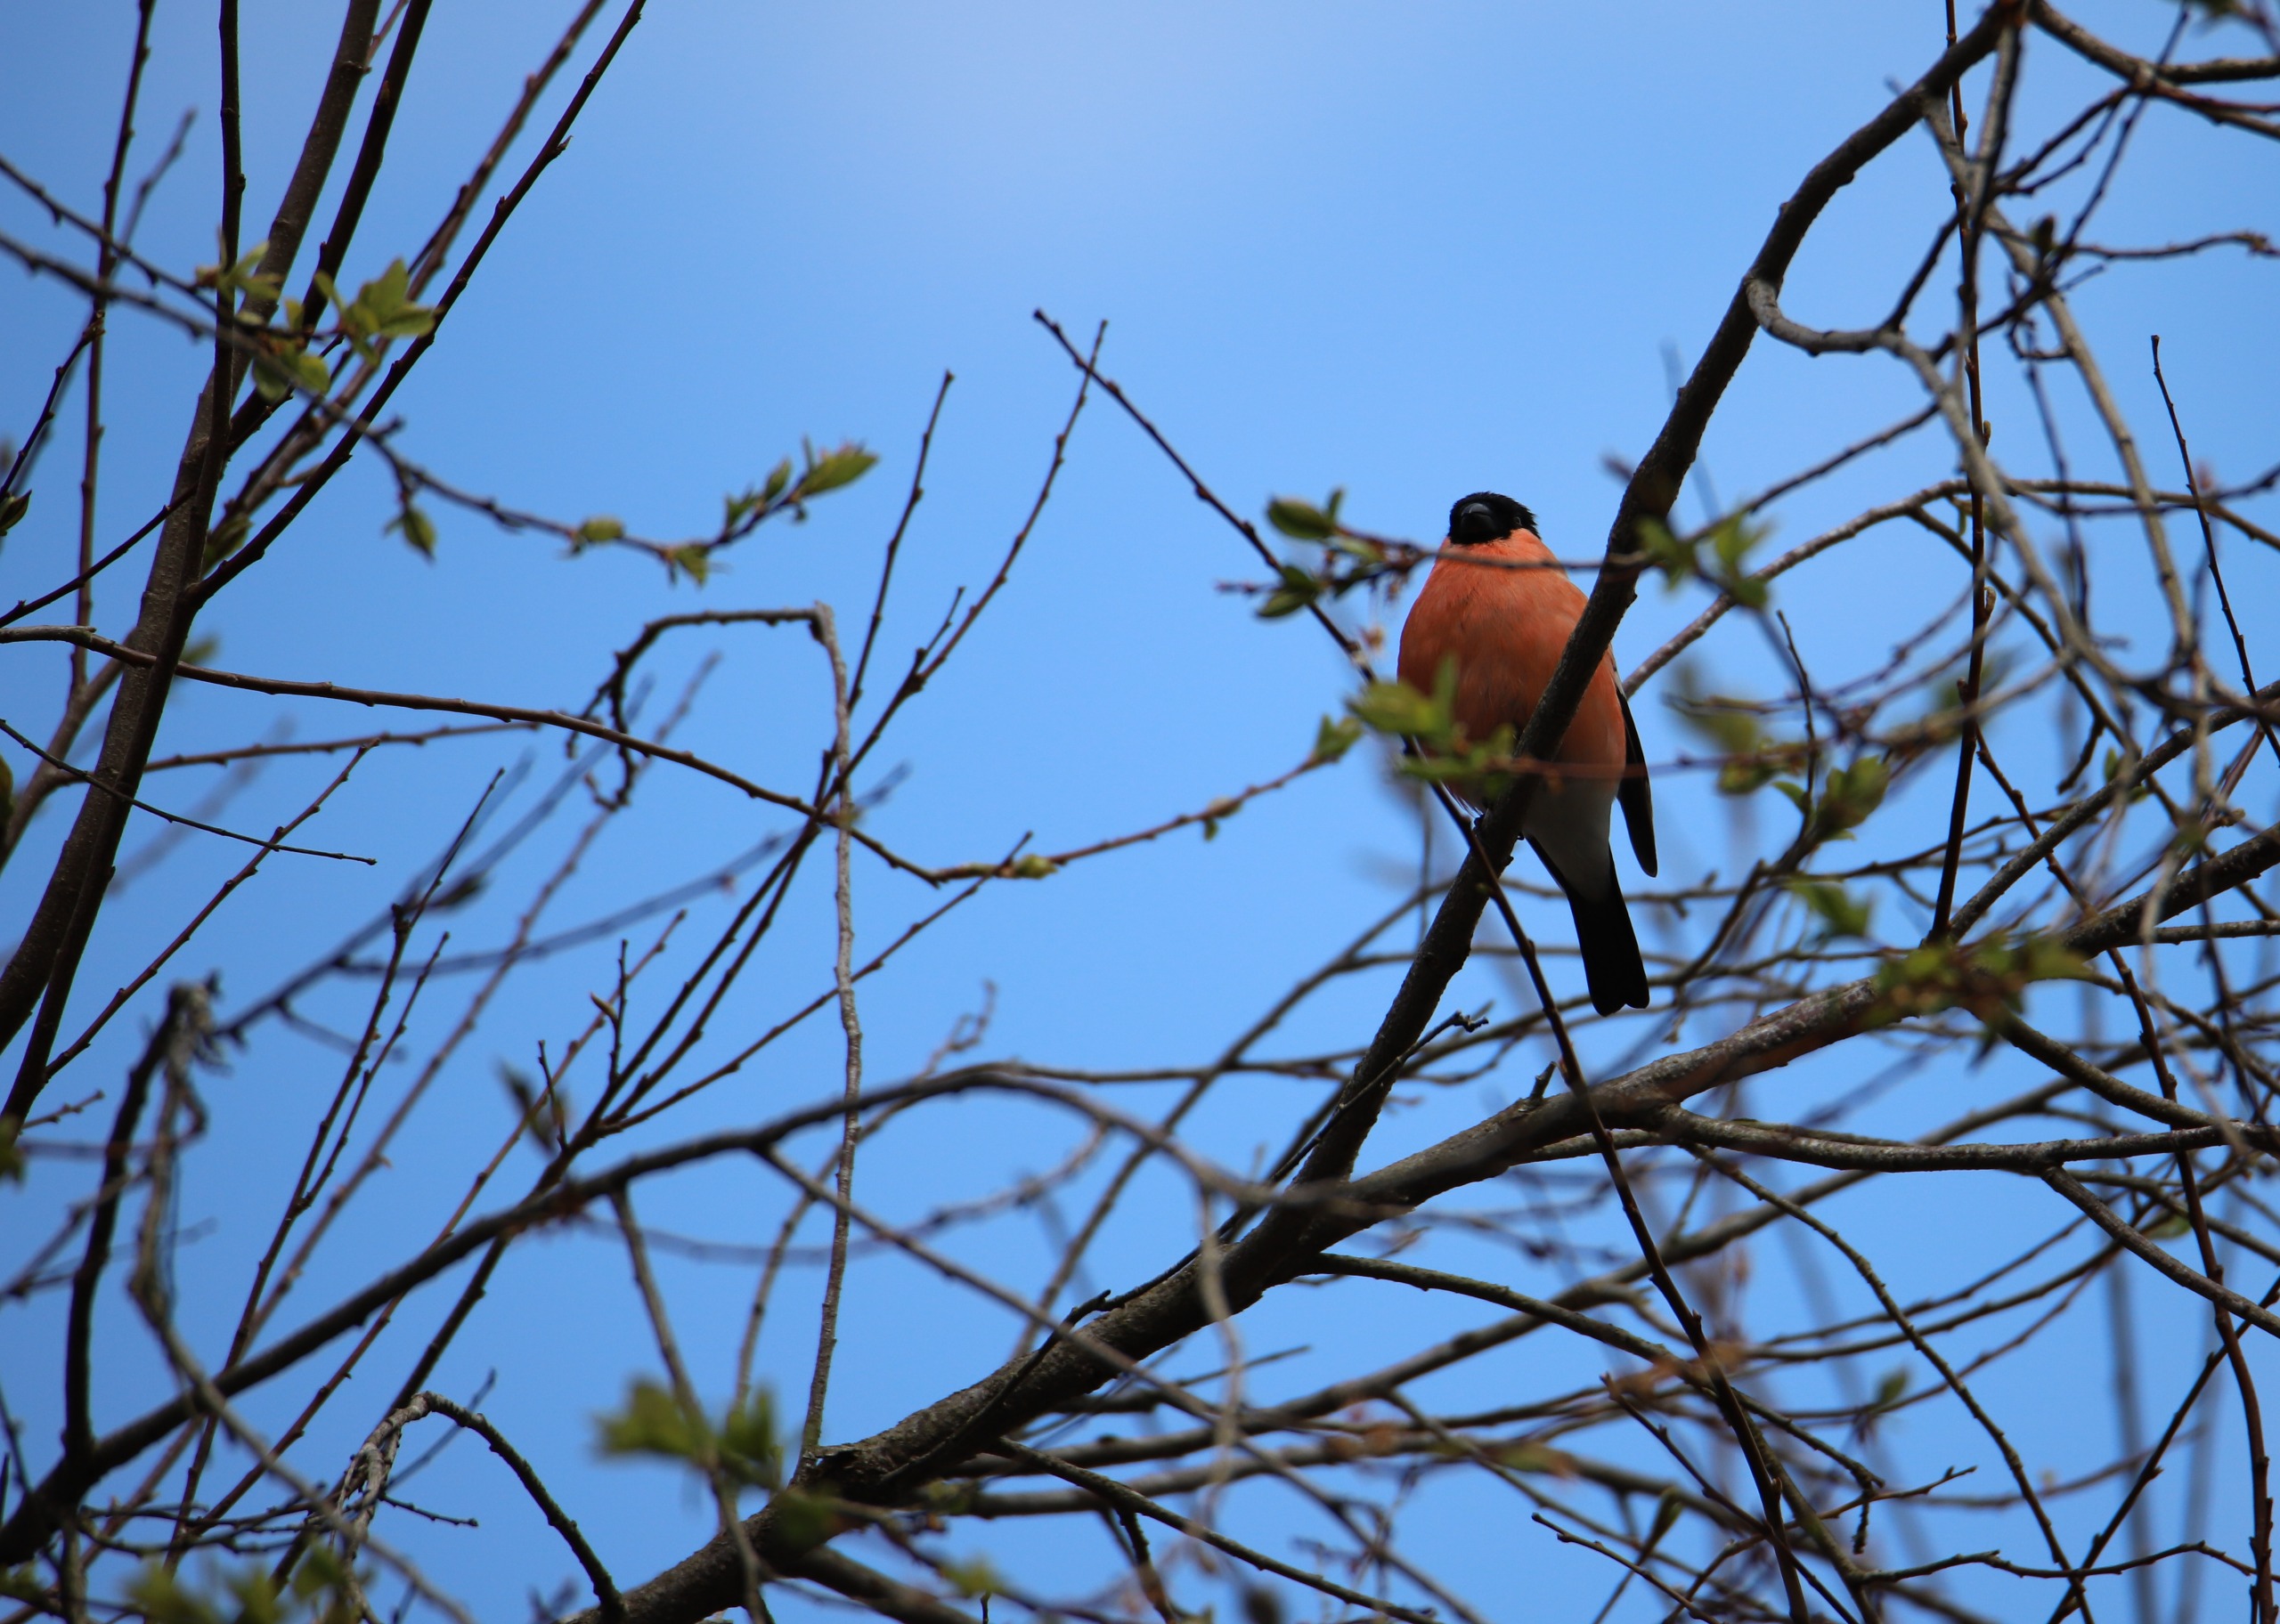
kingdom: Animalia
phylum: Chordata
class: Aves
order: Passeriformes
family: Fringillidae
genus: Pyrrhula
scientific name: Pyrrhula pyrrhula
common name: Dompap
